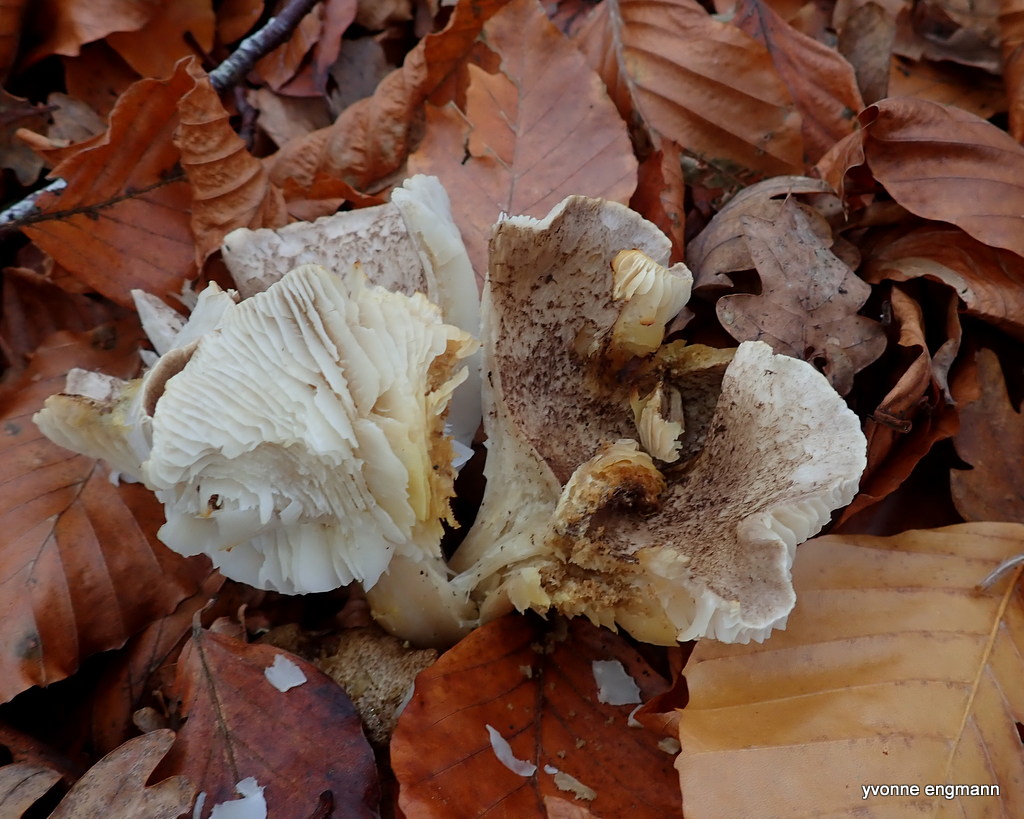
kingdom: Fungi
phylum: Basidiomycota
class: Agaricomycetes
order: Agaricales
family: Tricholomataceae
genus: Tricholoma
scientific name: Tricholoma scalpturatum
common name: gulplettet ridderhat
